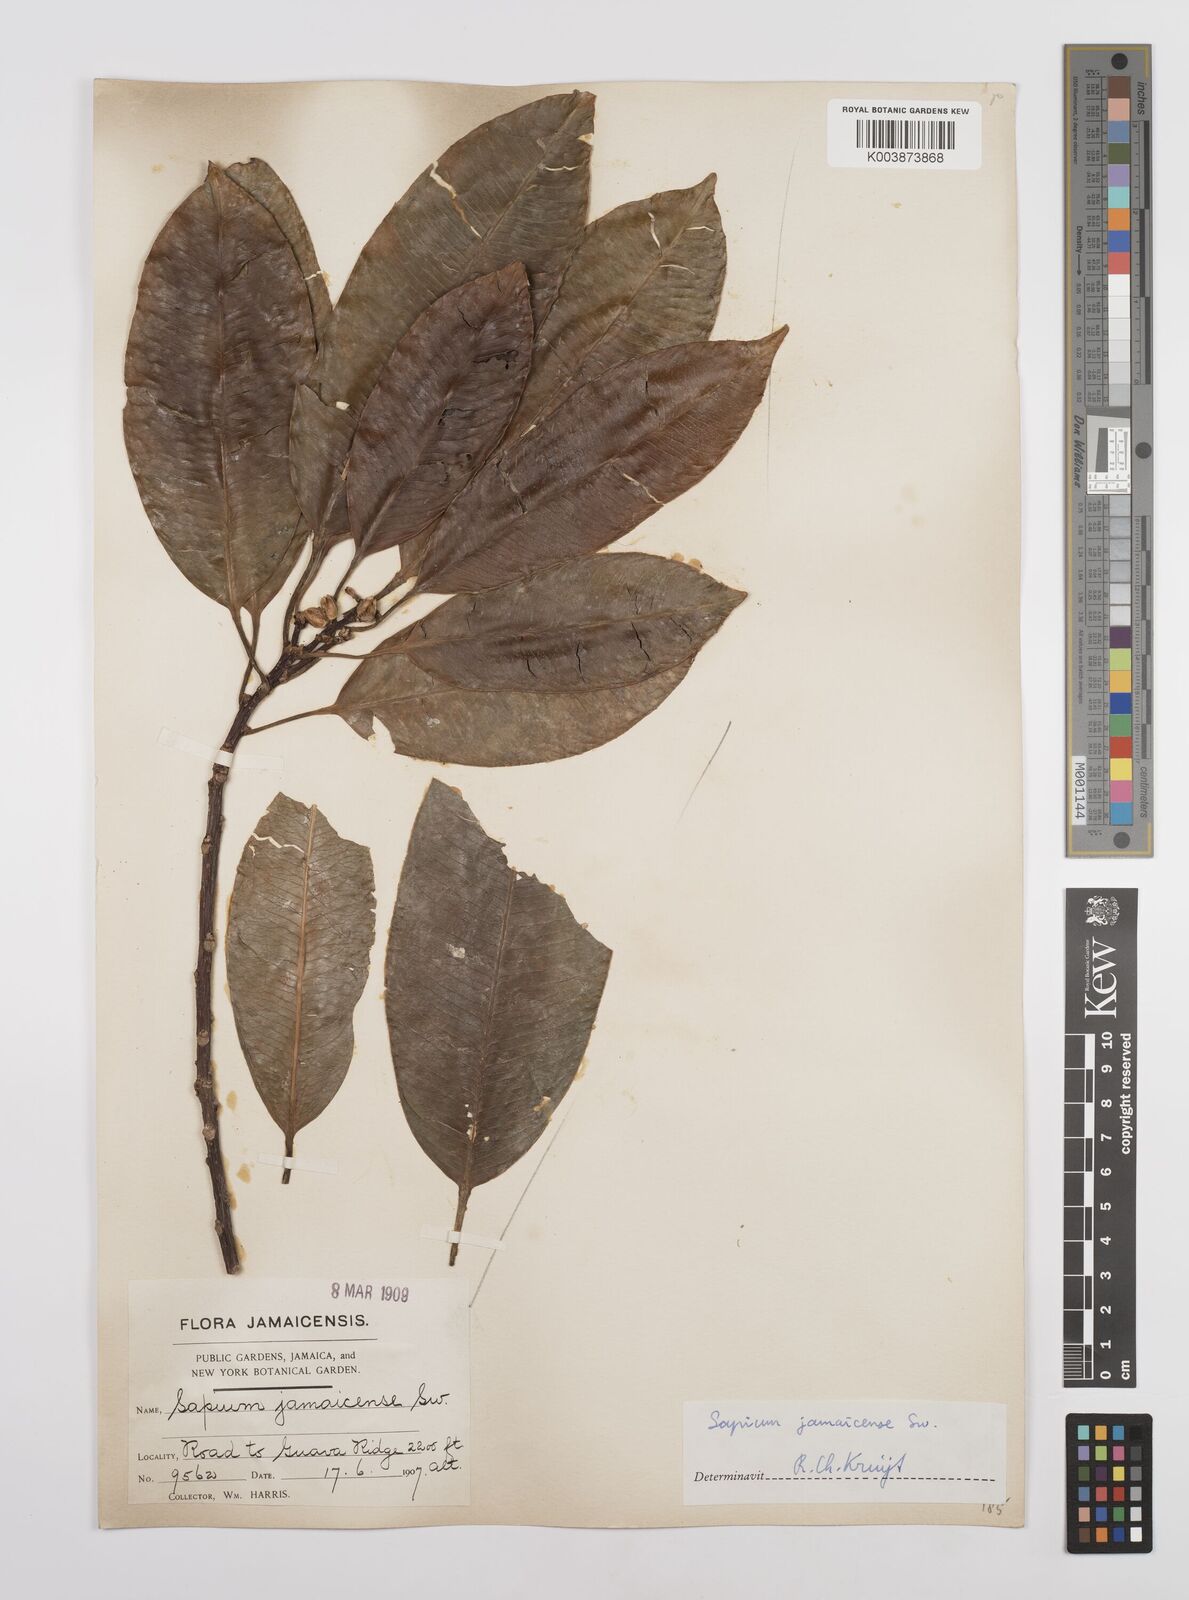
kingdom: Plantae
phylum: Tracheophyta
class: Magnoliopsida
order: Malpighiales
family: Euphorbiaceae
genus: Sapium
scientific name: Sapium glandulosum
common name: Milktree
